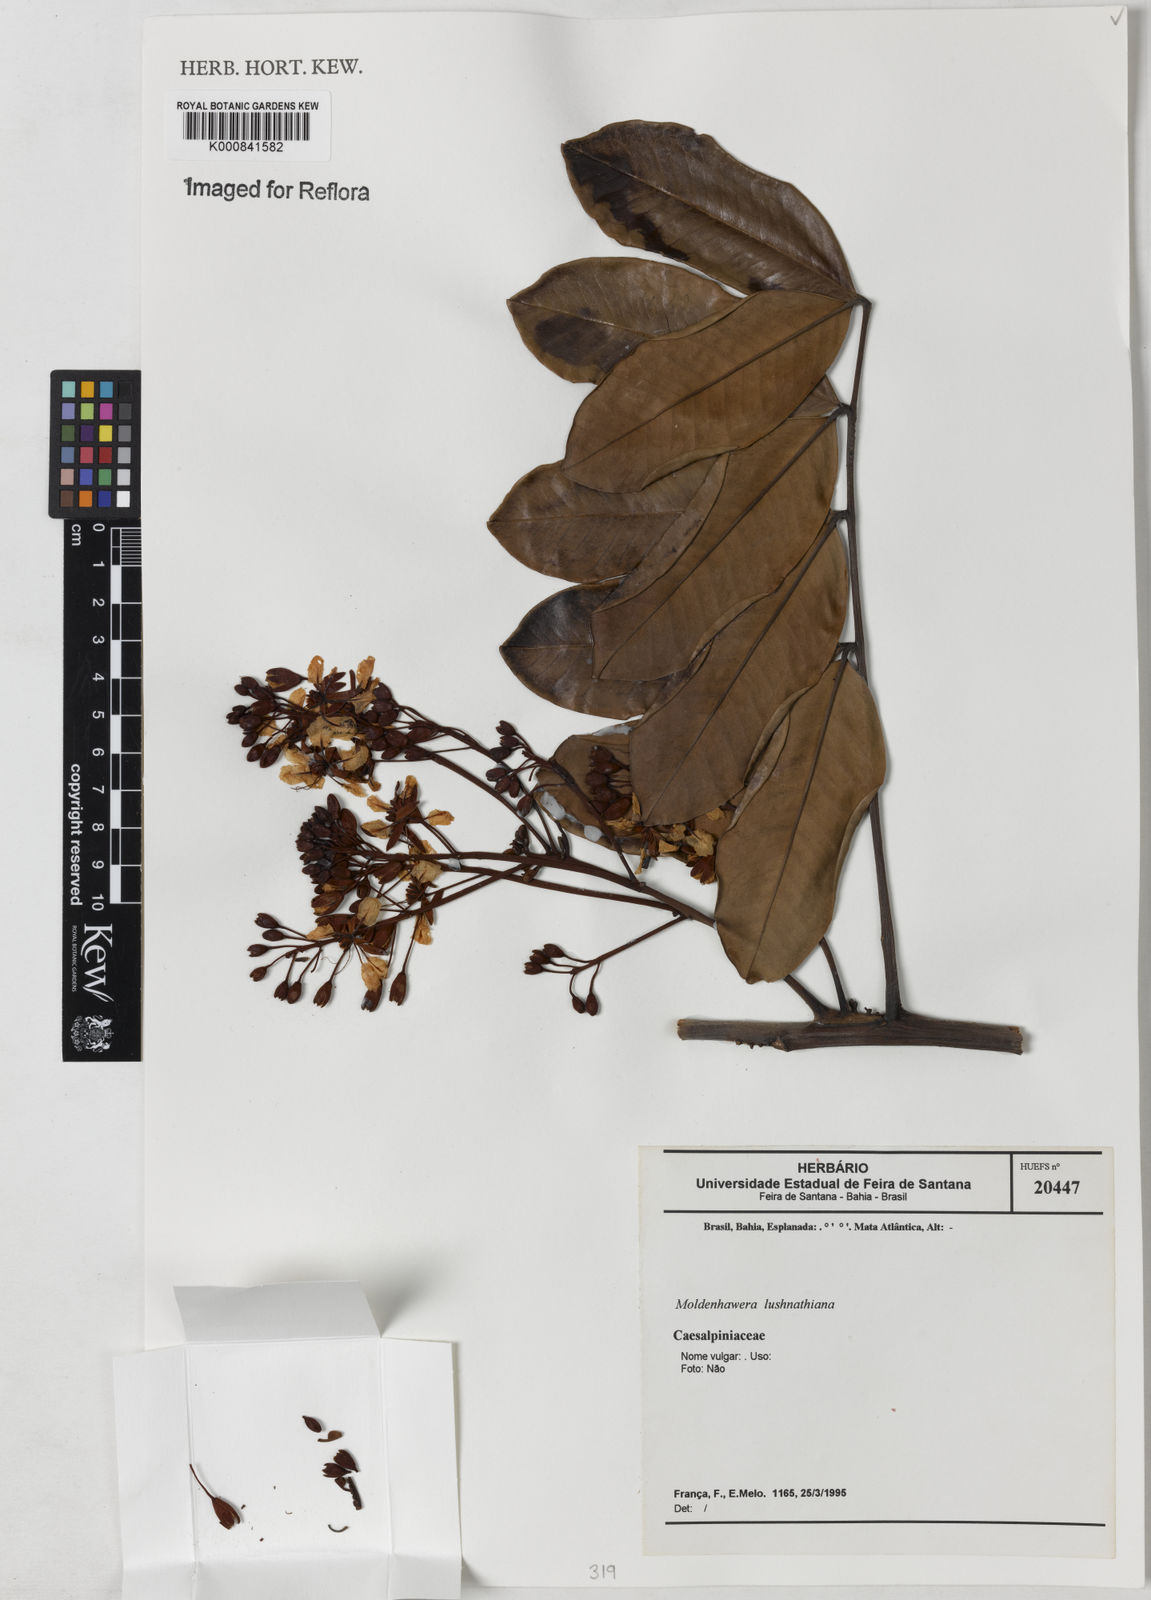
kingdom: Plantae
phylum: Tracheophyta
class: Magnoliopsida
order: Fabales
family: Fabaceae
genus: Moldenhawera
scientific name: Moldenhawera lushnathiana
